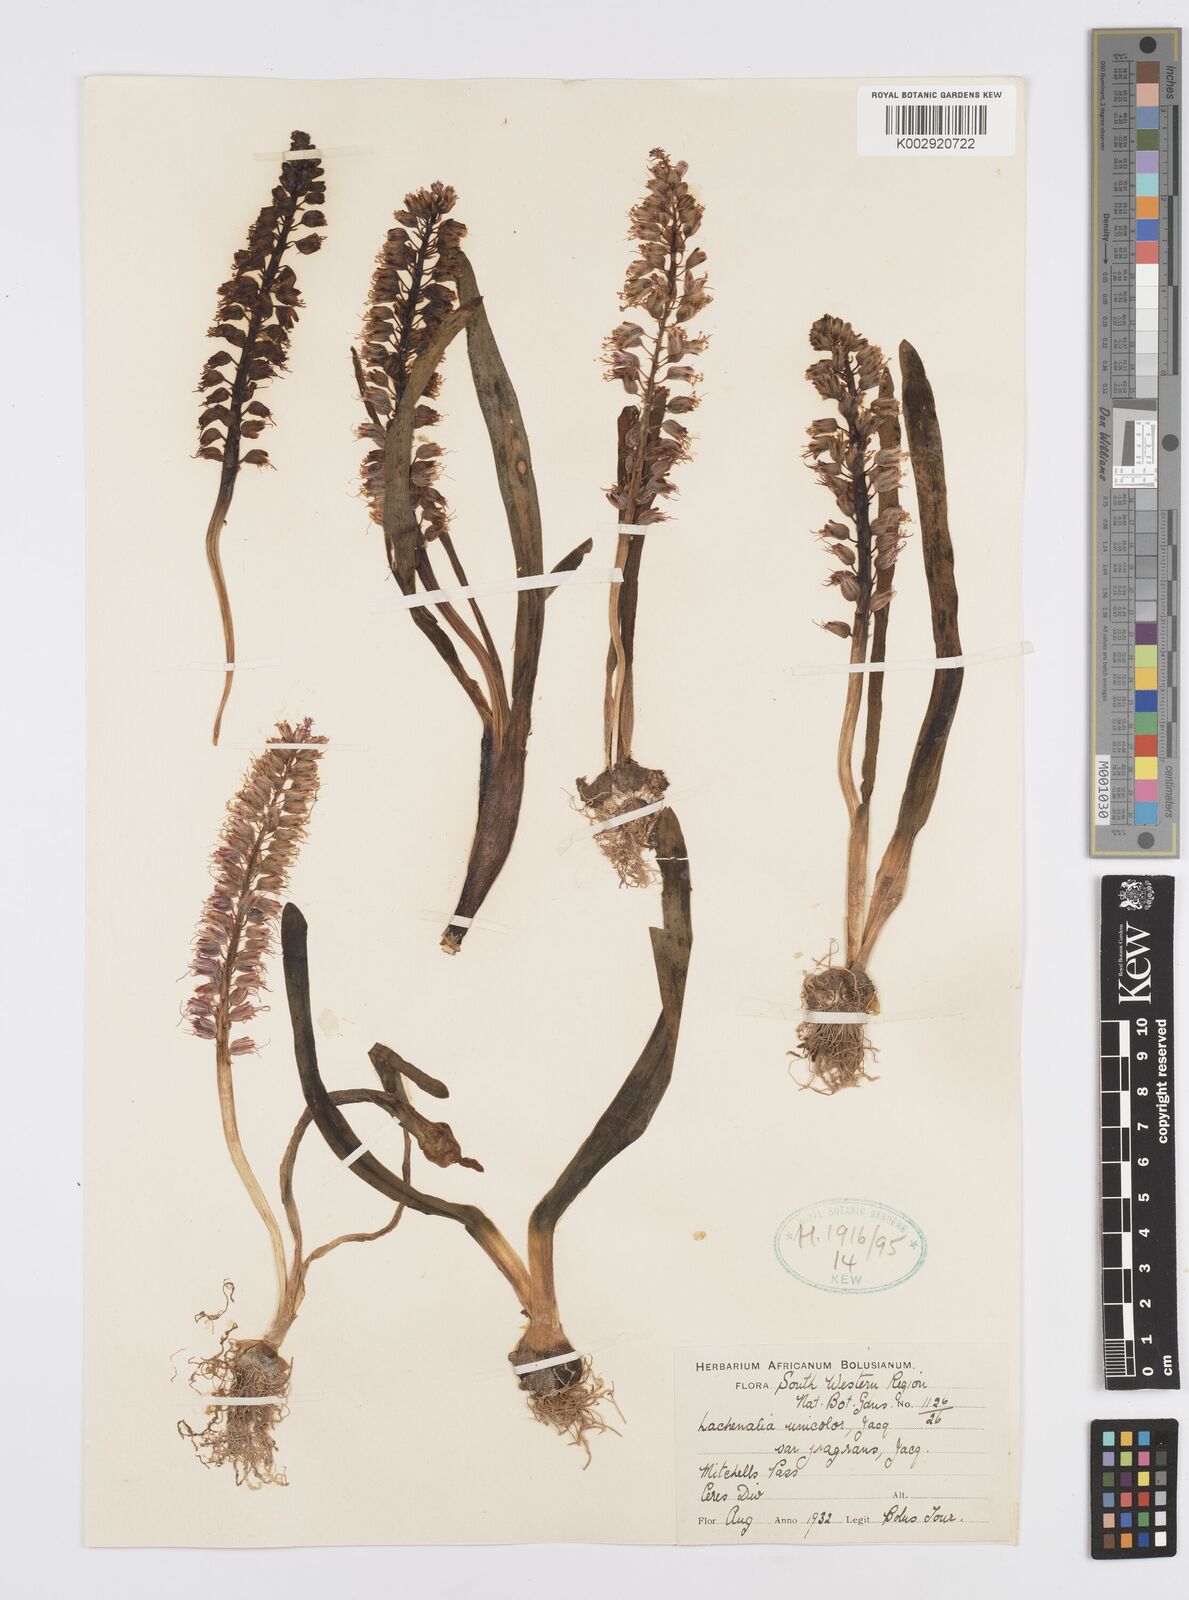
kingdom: Plantae
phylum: Tracheophyta
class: Liliopsida
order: Asparagales
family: Asparagaceae
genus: Lachenalia
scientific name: Lachenalia pallida
